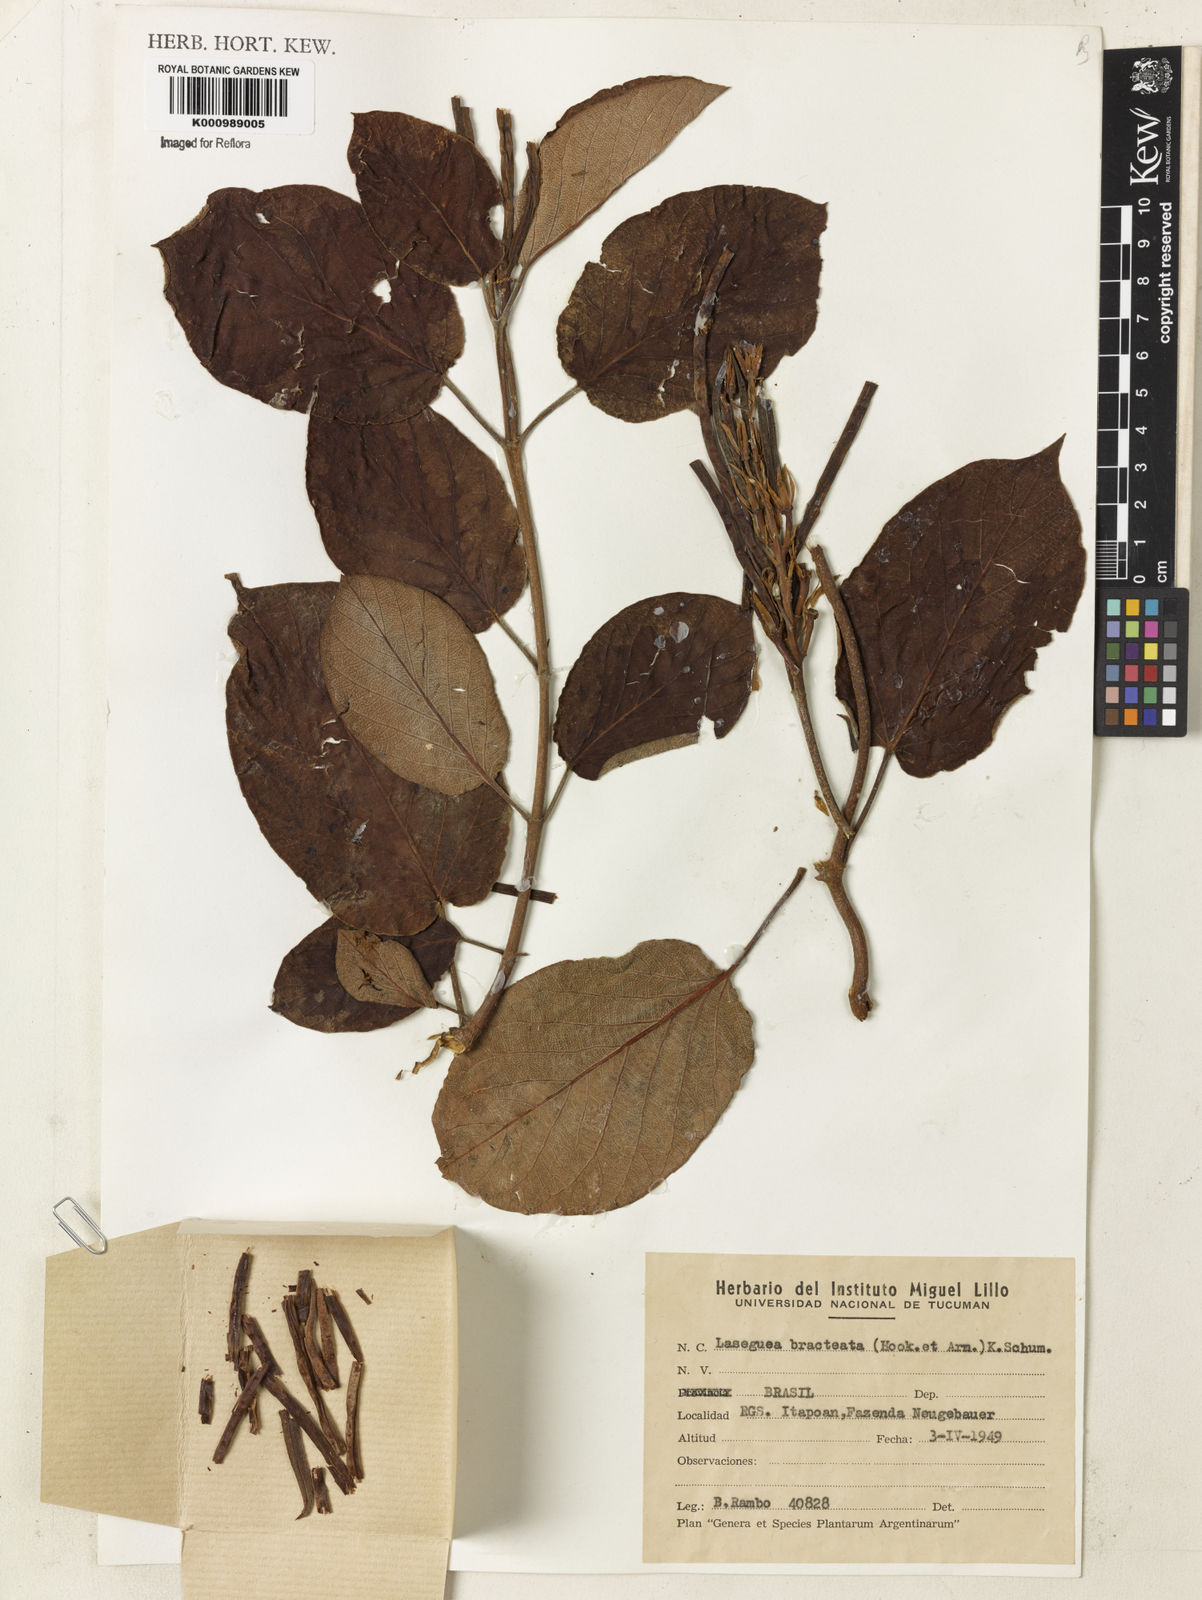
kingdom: Plantae
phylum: Tracheophyta
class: Magnoliopsida
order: Gentianales
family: Apocynaceae
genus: Mandevilla
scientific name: Mandevilla emarginata
